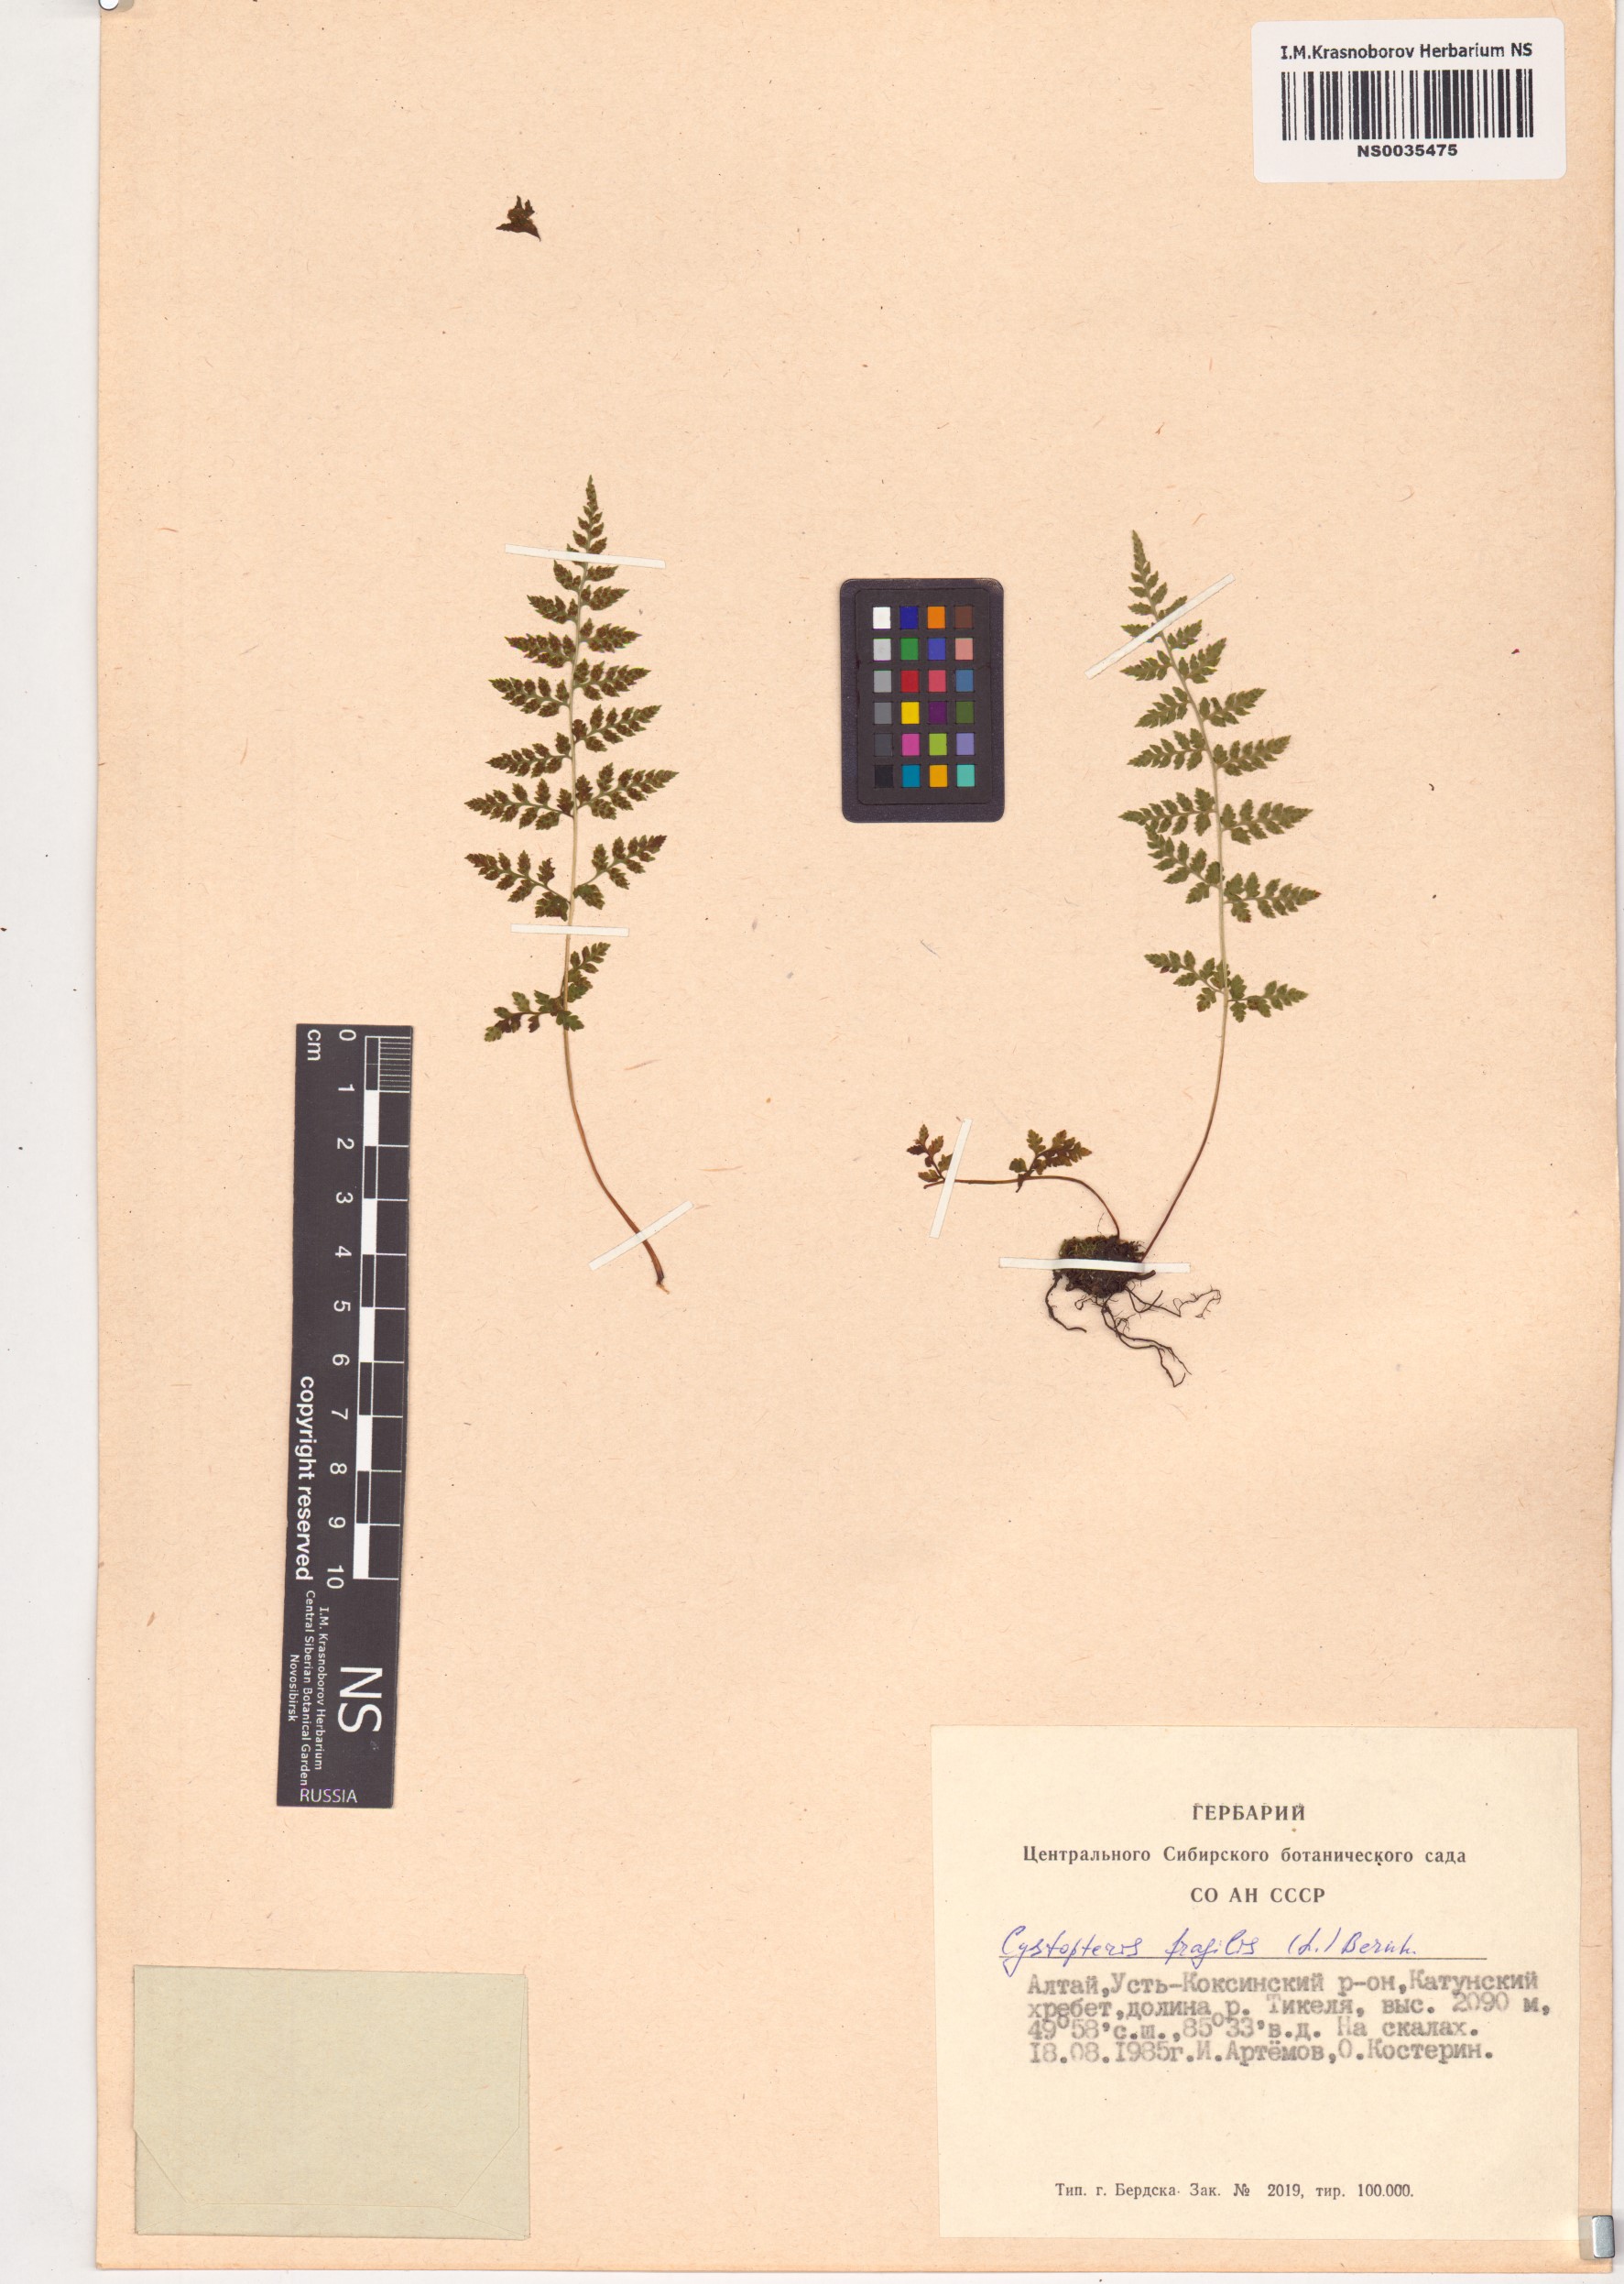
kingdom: Plantae
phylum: Tracheophyta
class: Polypodiopsida
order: Polypodiales
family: Cystopteridaceae
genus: Cystopteris
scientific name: Cystopteris fragilis
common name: Brittle bladder fern
